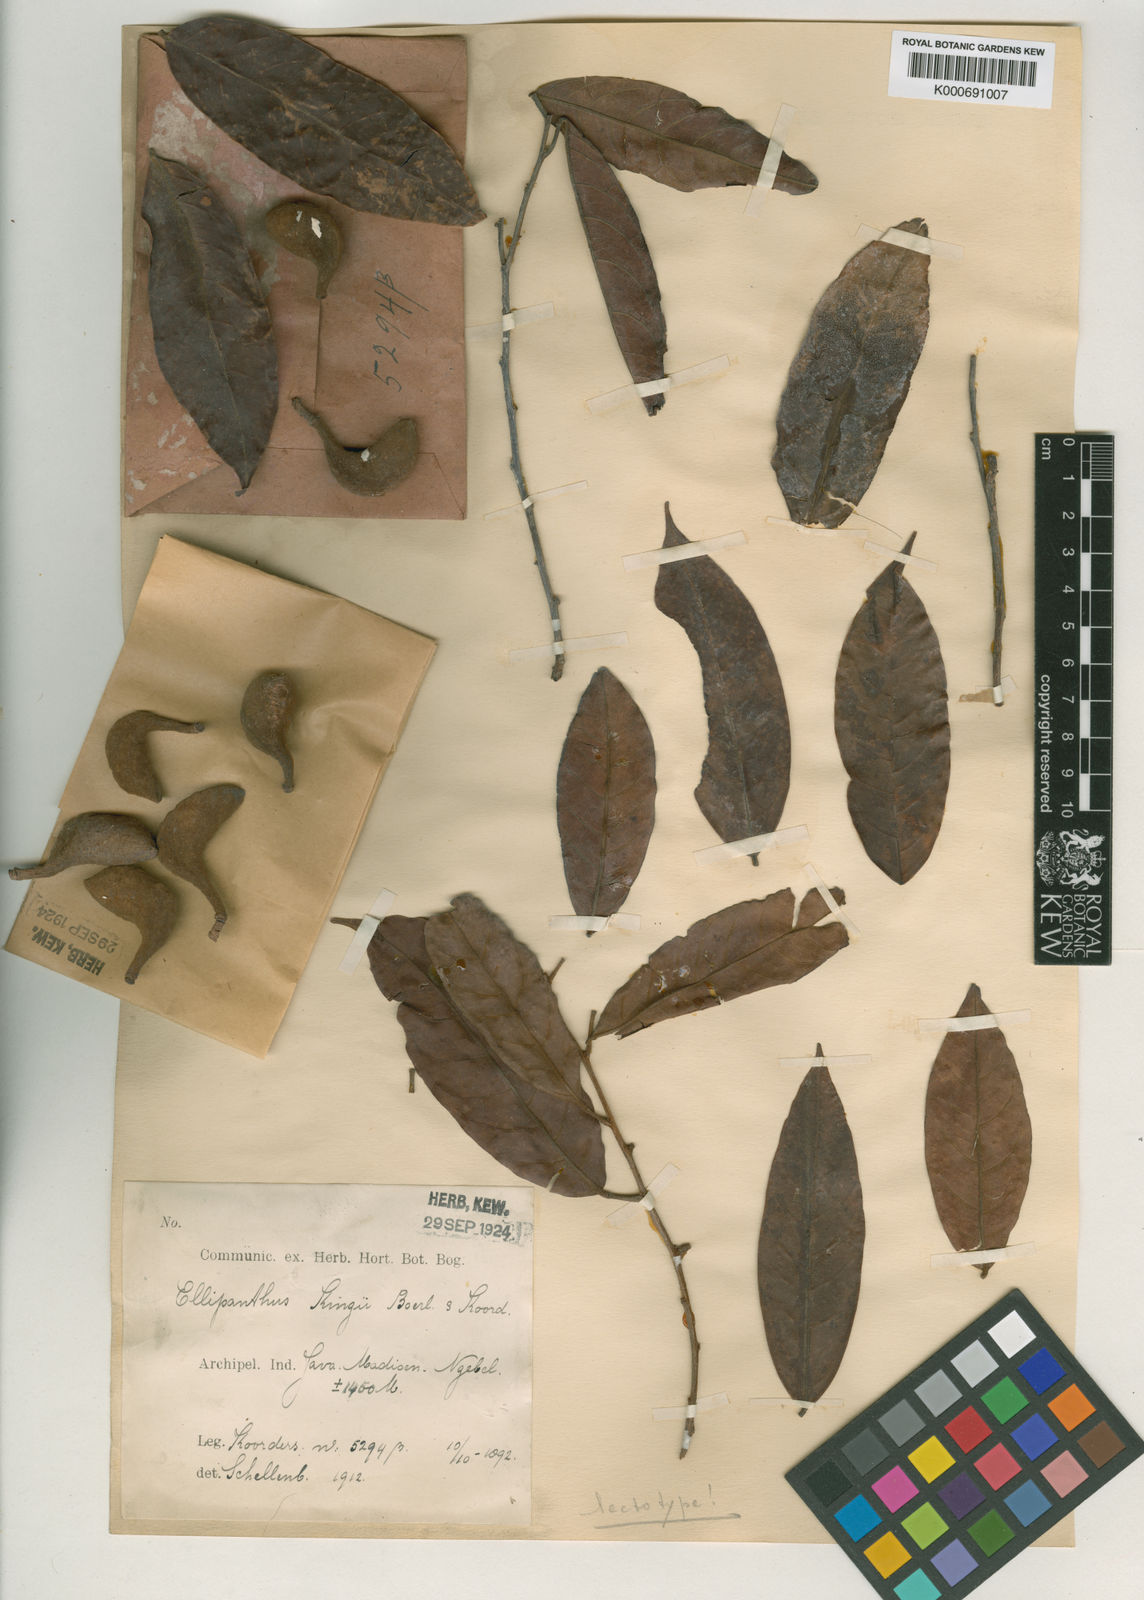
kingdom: Plantae
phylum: Tracheophyta
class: Magnoliopsida
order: Oxalidales
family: Connaraceae
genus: Ellipanthus
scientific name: Ellipanthus tomentosus
